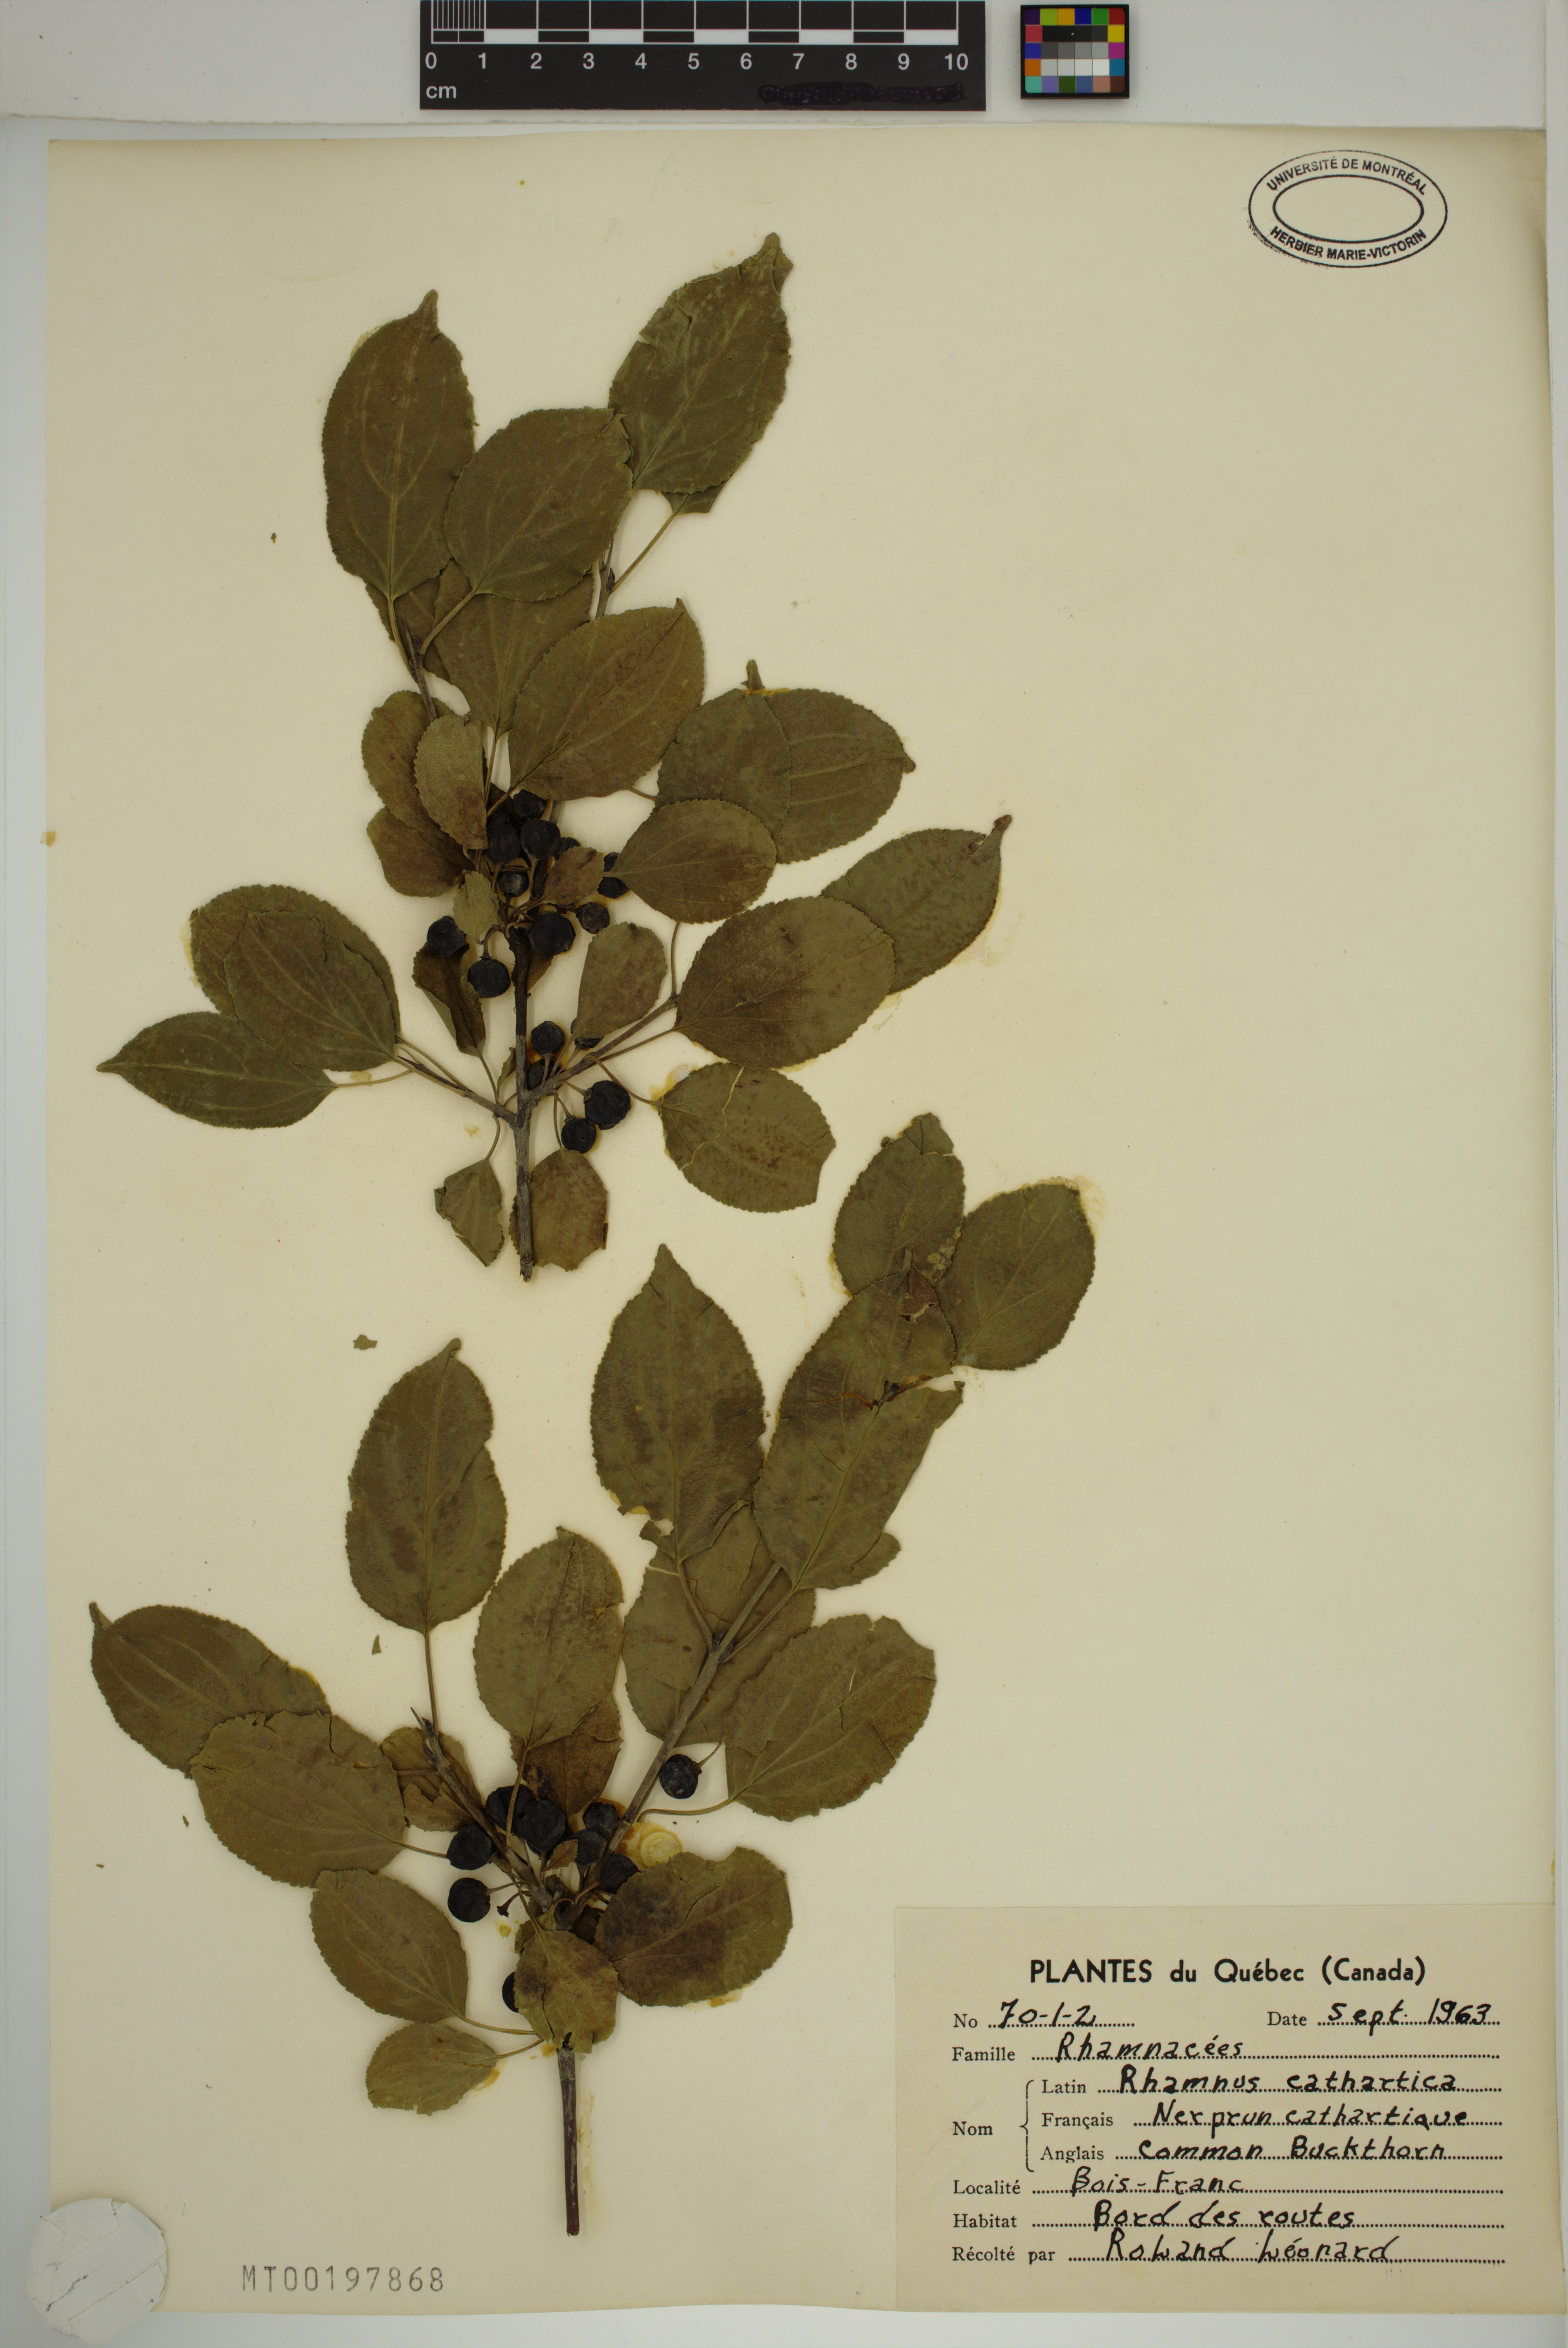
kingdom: Plantae
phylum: Tracheophyta
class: Magnoliopsida
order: Rosales
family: Rhamnaceae
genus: Rhamnus
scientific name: Rhamnus cathartica
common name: Common buckthorn
